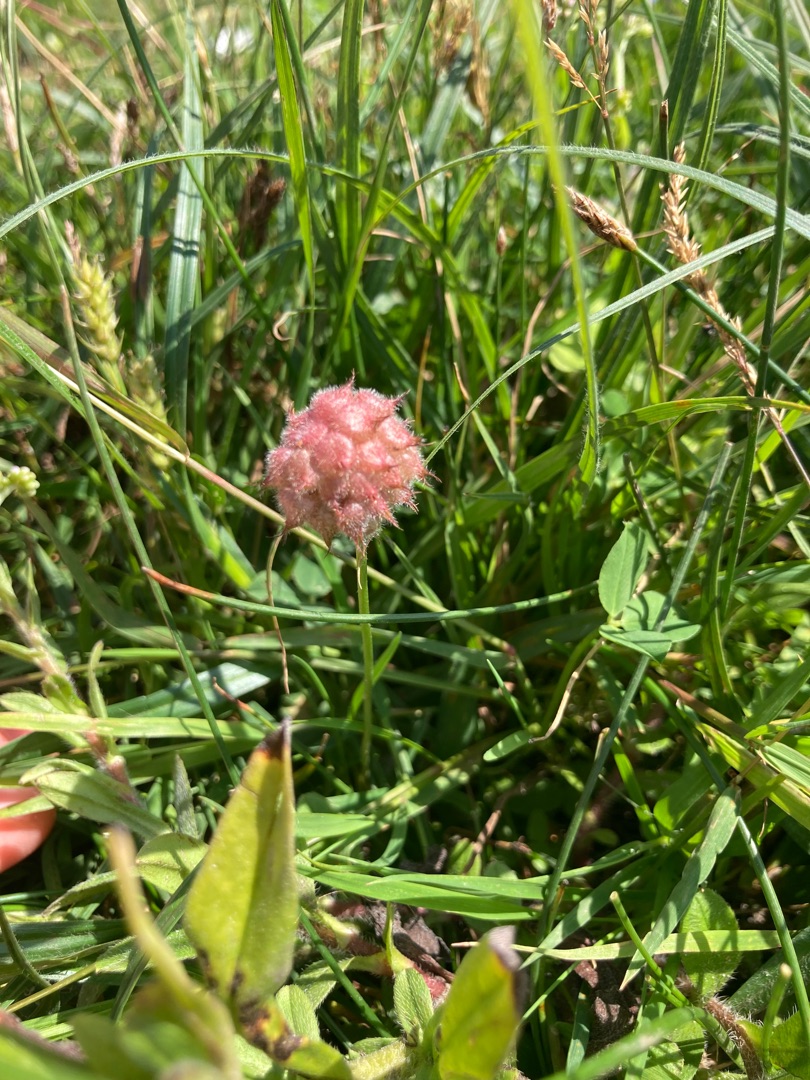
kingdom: Plantae
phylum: Tracheophyta
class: Magnoliopsida
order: Fabales
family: Fabaceae
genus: Trifolium
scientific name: Trifolium fragiferum
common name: Jordbær-kløver
